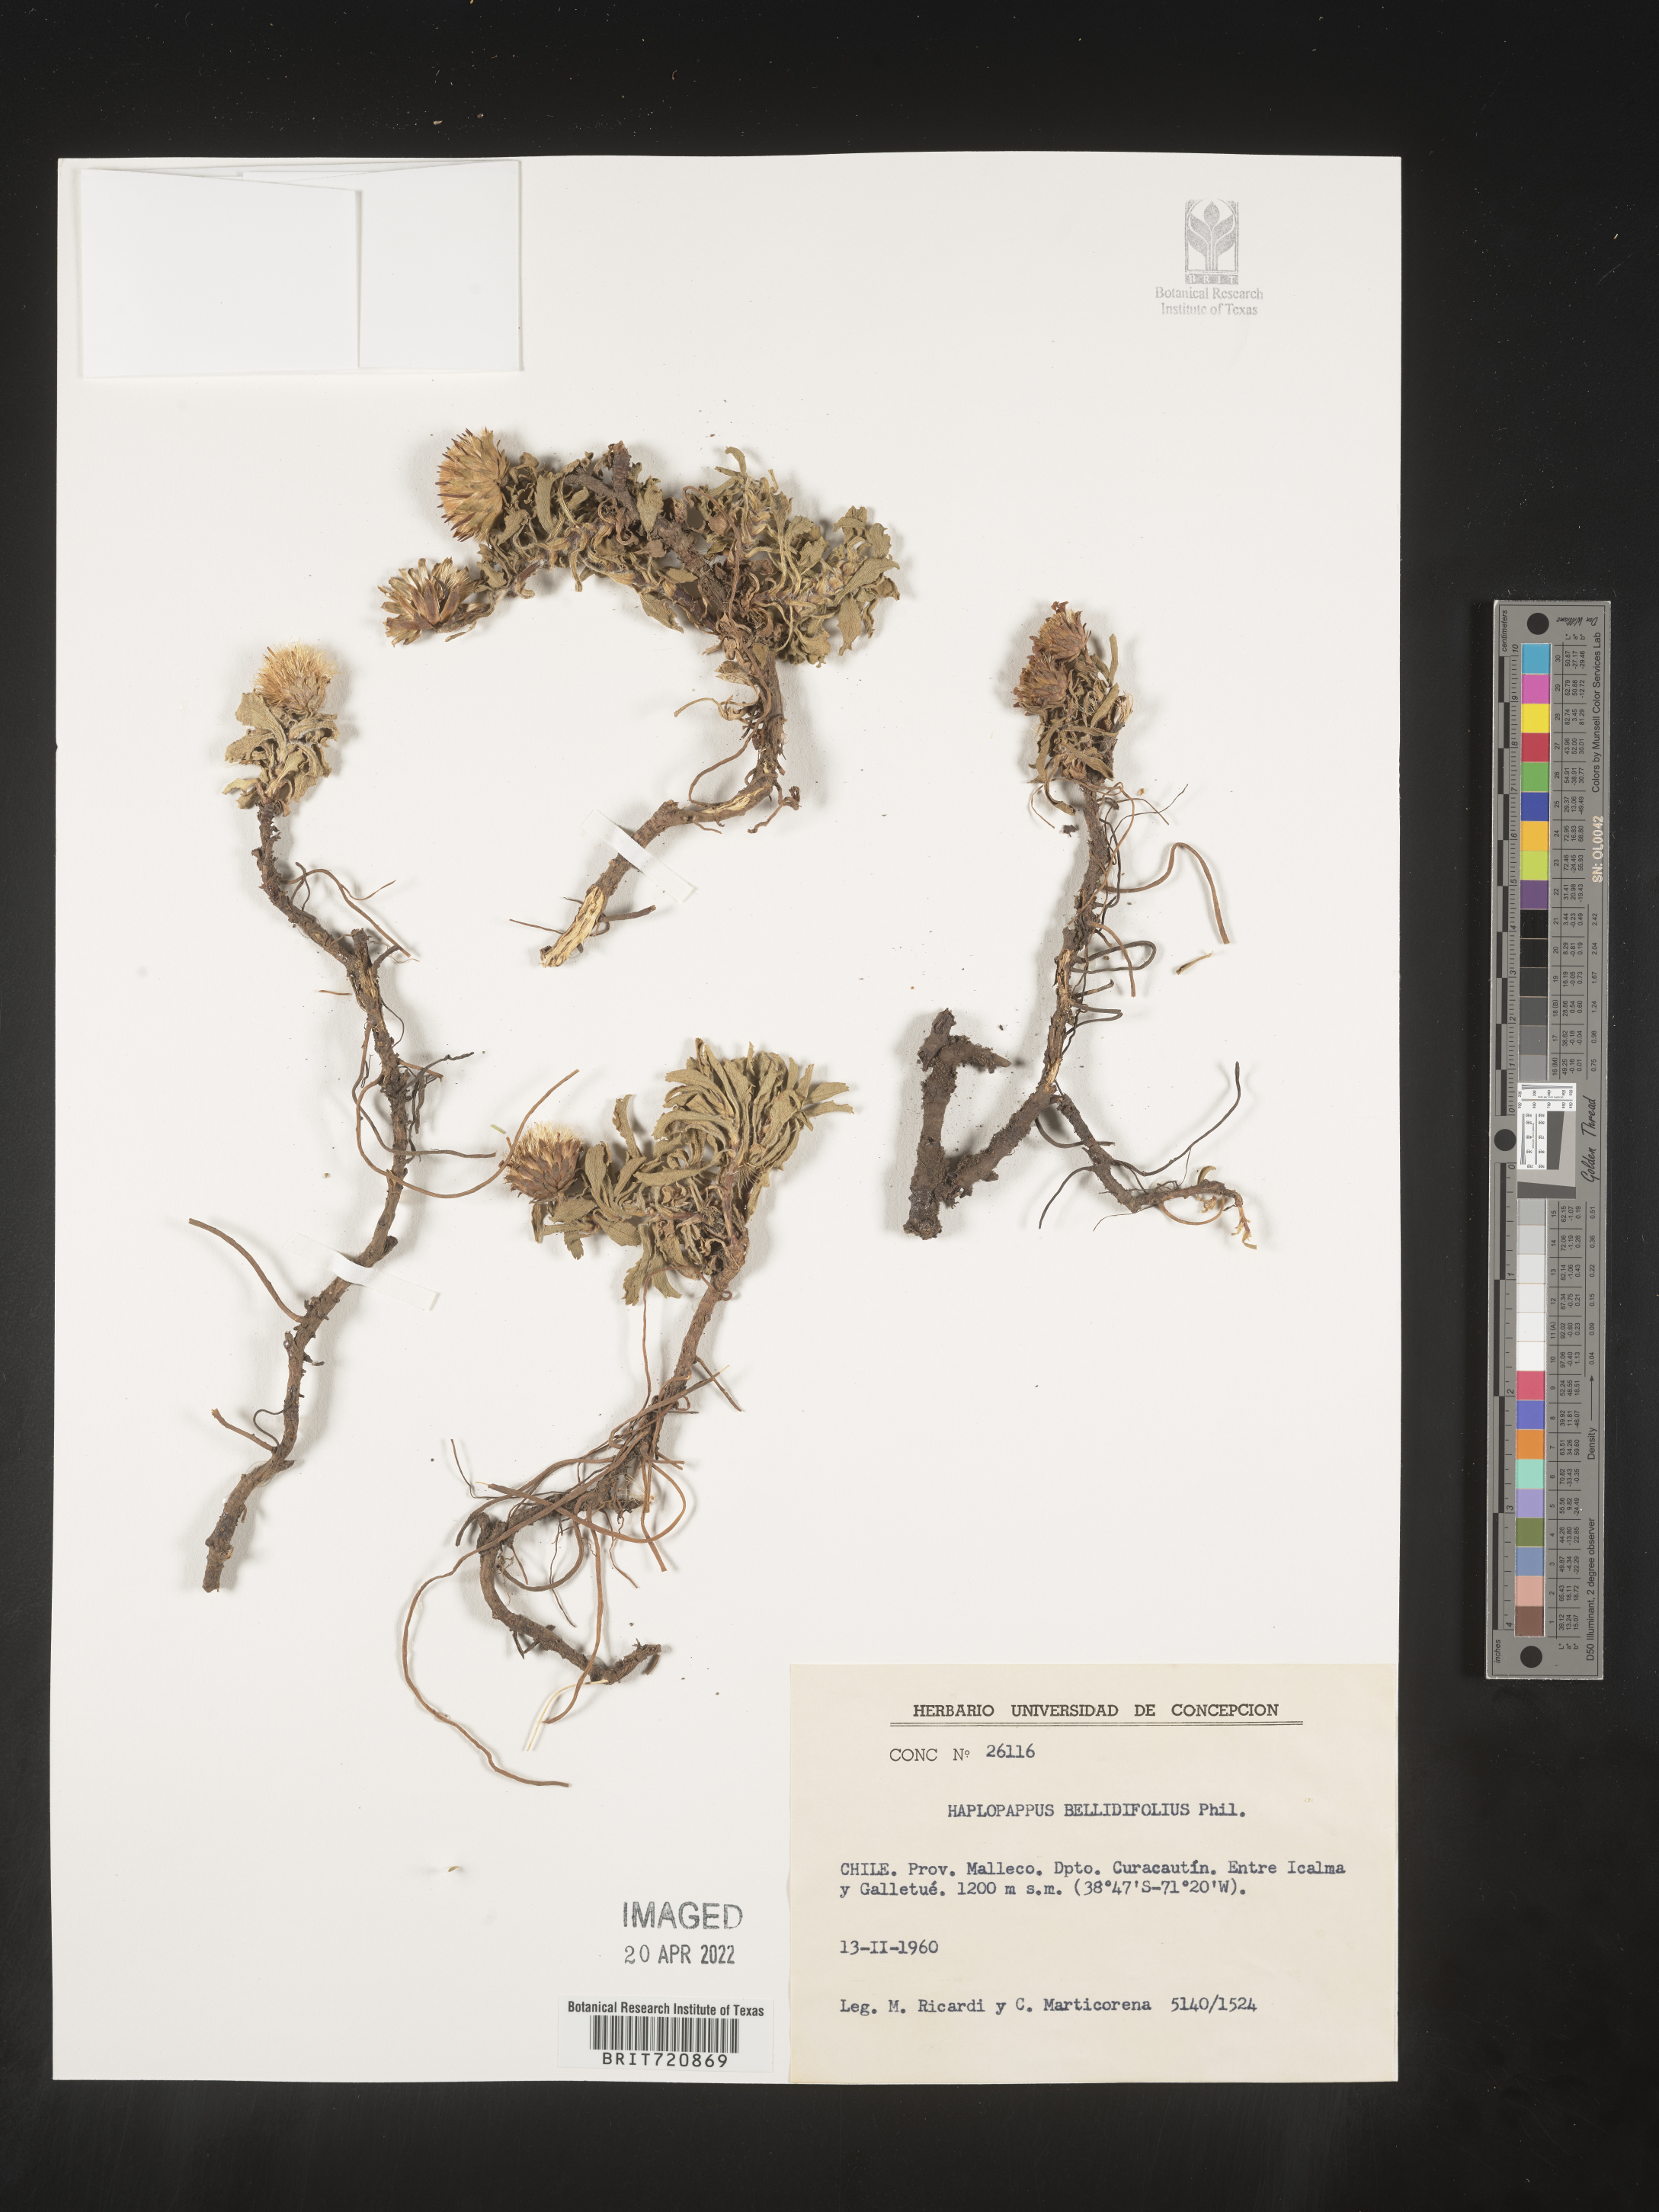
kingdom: Plantae
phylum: Tracheophyta
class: Magnoliopsida
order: Asterales
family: Asteraceae
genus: Haplopappus
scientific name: Haplopappus
